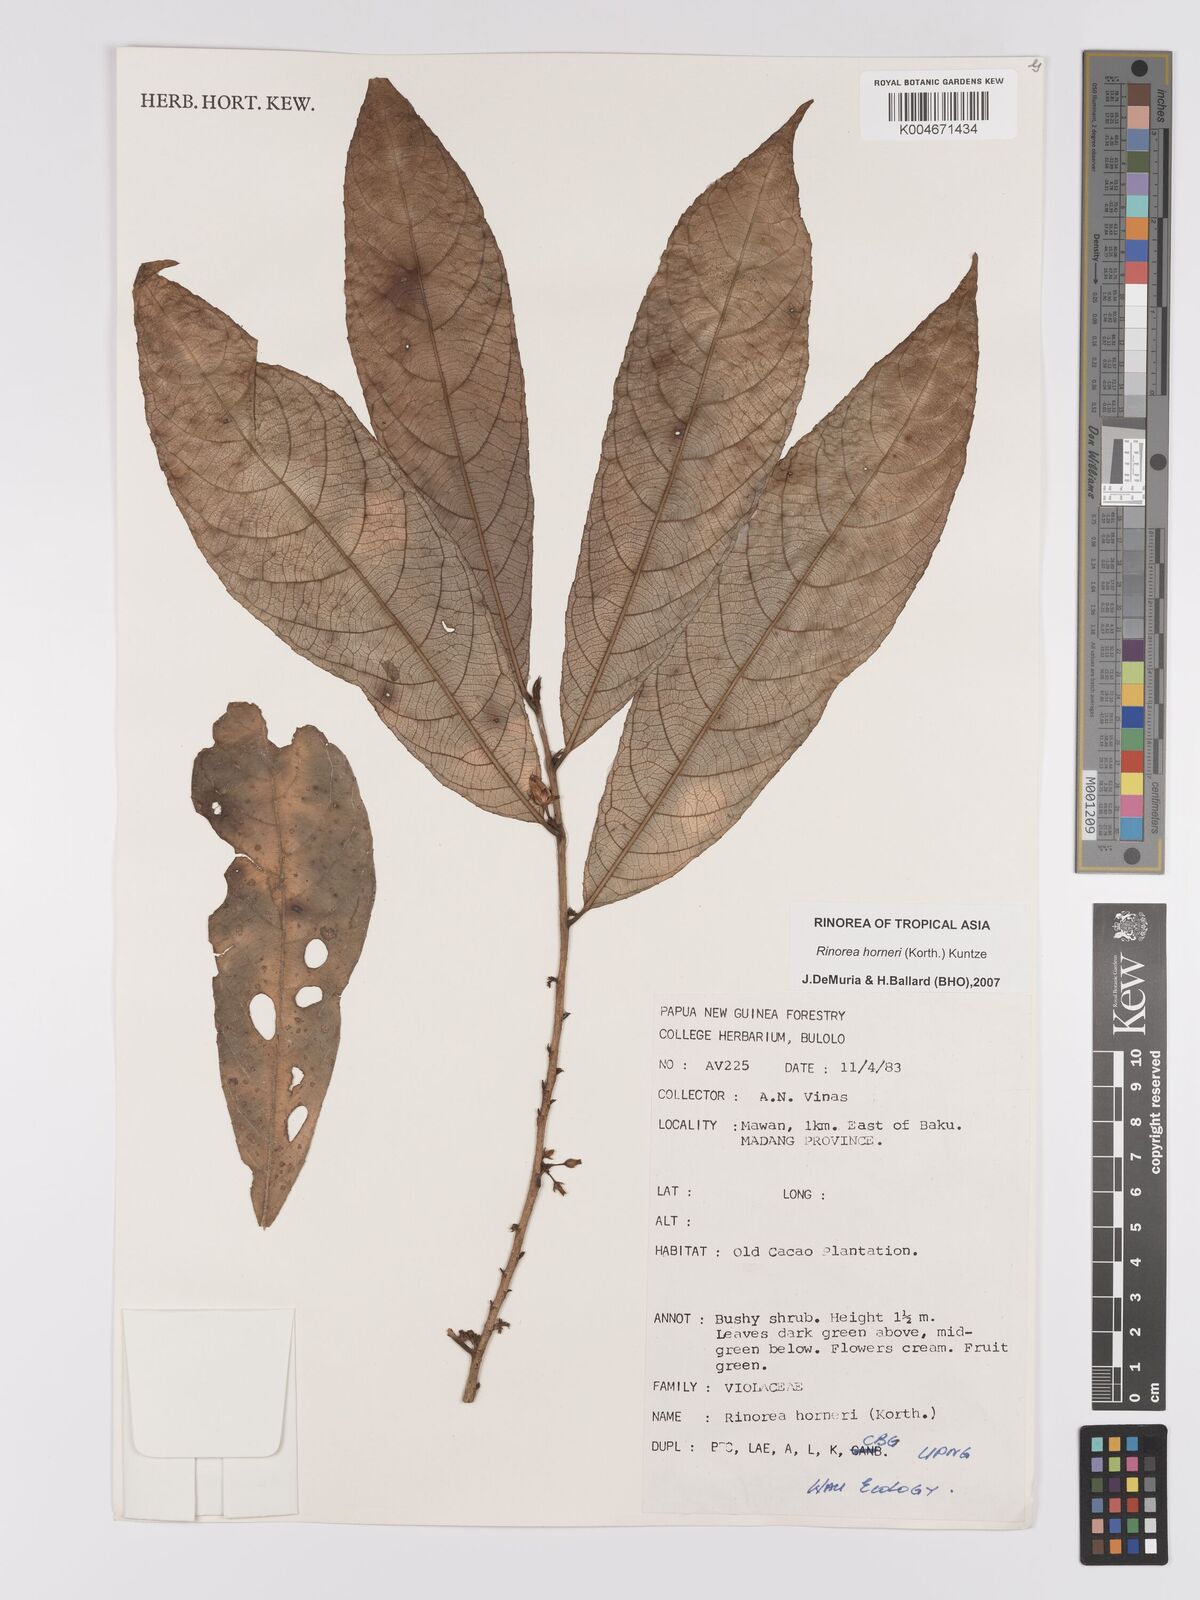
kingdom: Plantae
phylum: Tracheophyta
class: Magnoliopsida
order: Malpighiales
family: Violaceae
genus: Rinorea
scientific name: Rinorea horneri
